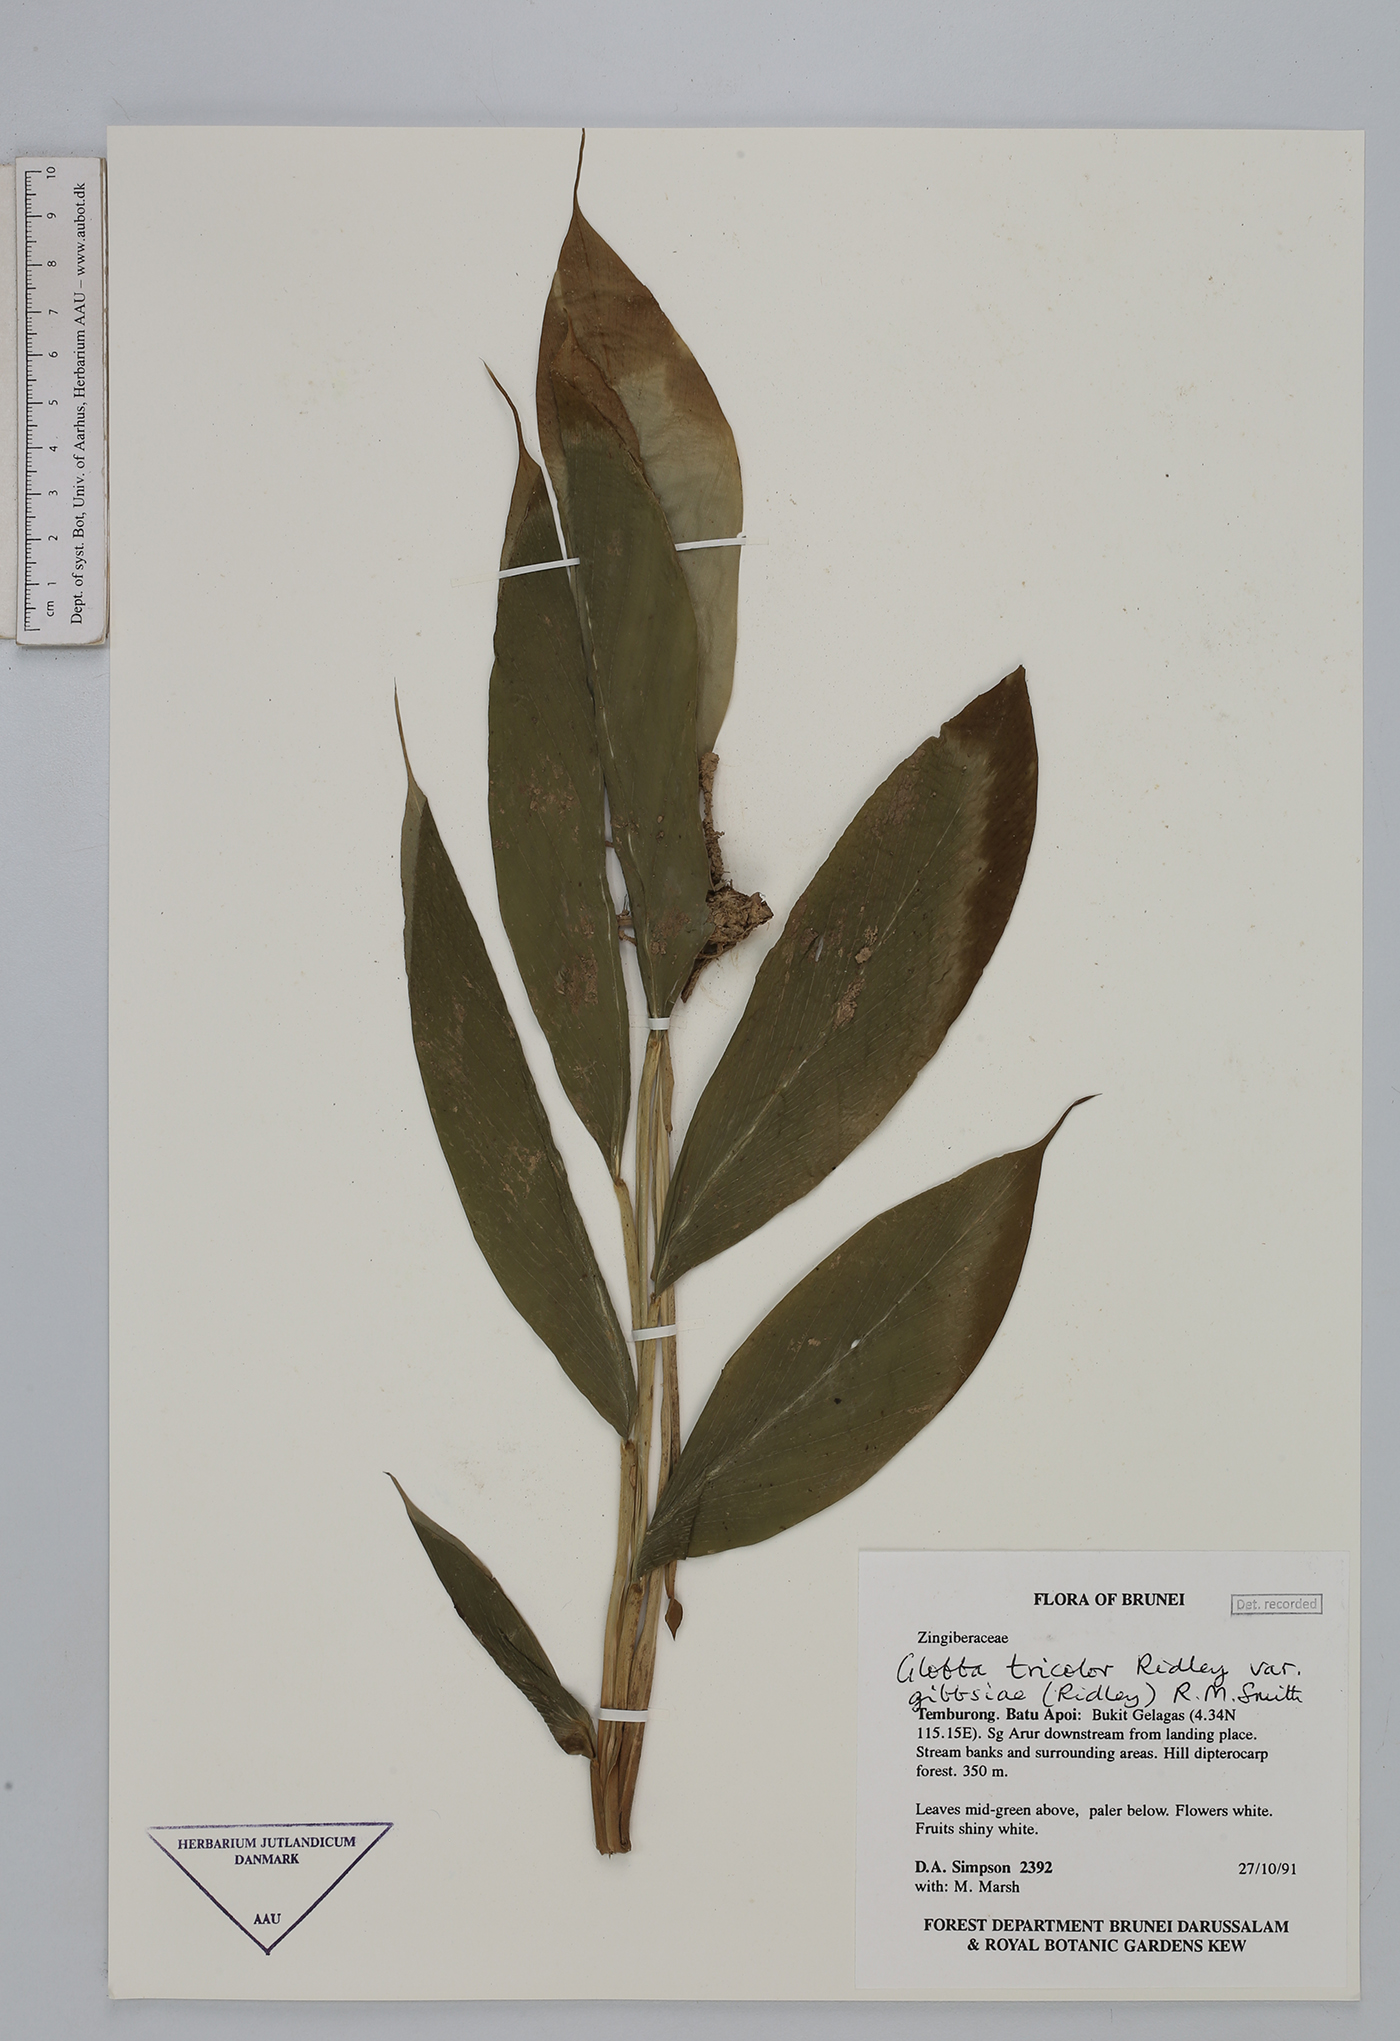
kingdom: Plantae
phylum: Tracheophyta
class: Liliopsida
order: Zingiberales
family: Zingiberaceae
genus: Globba
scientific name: Globba tricolor
